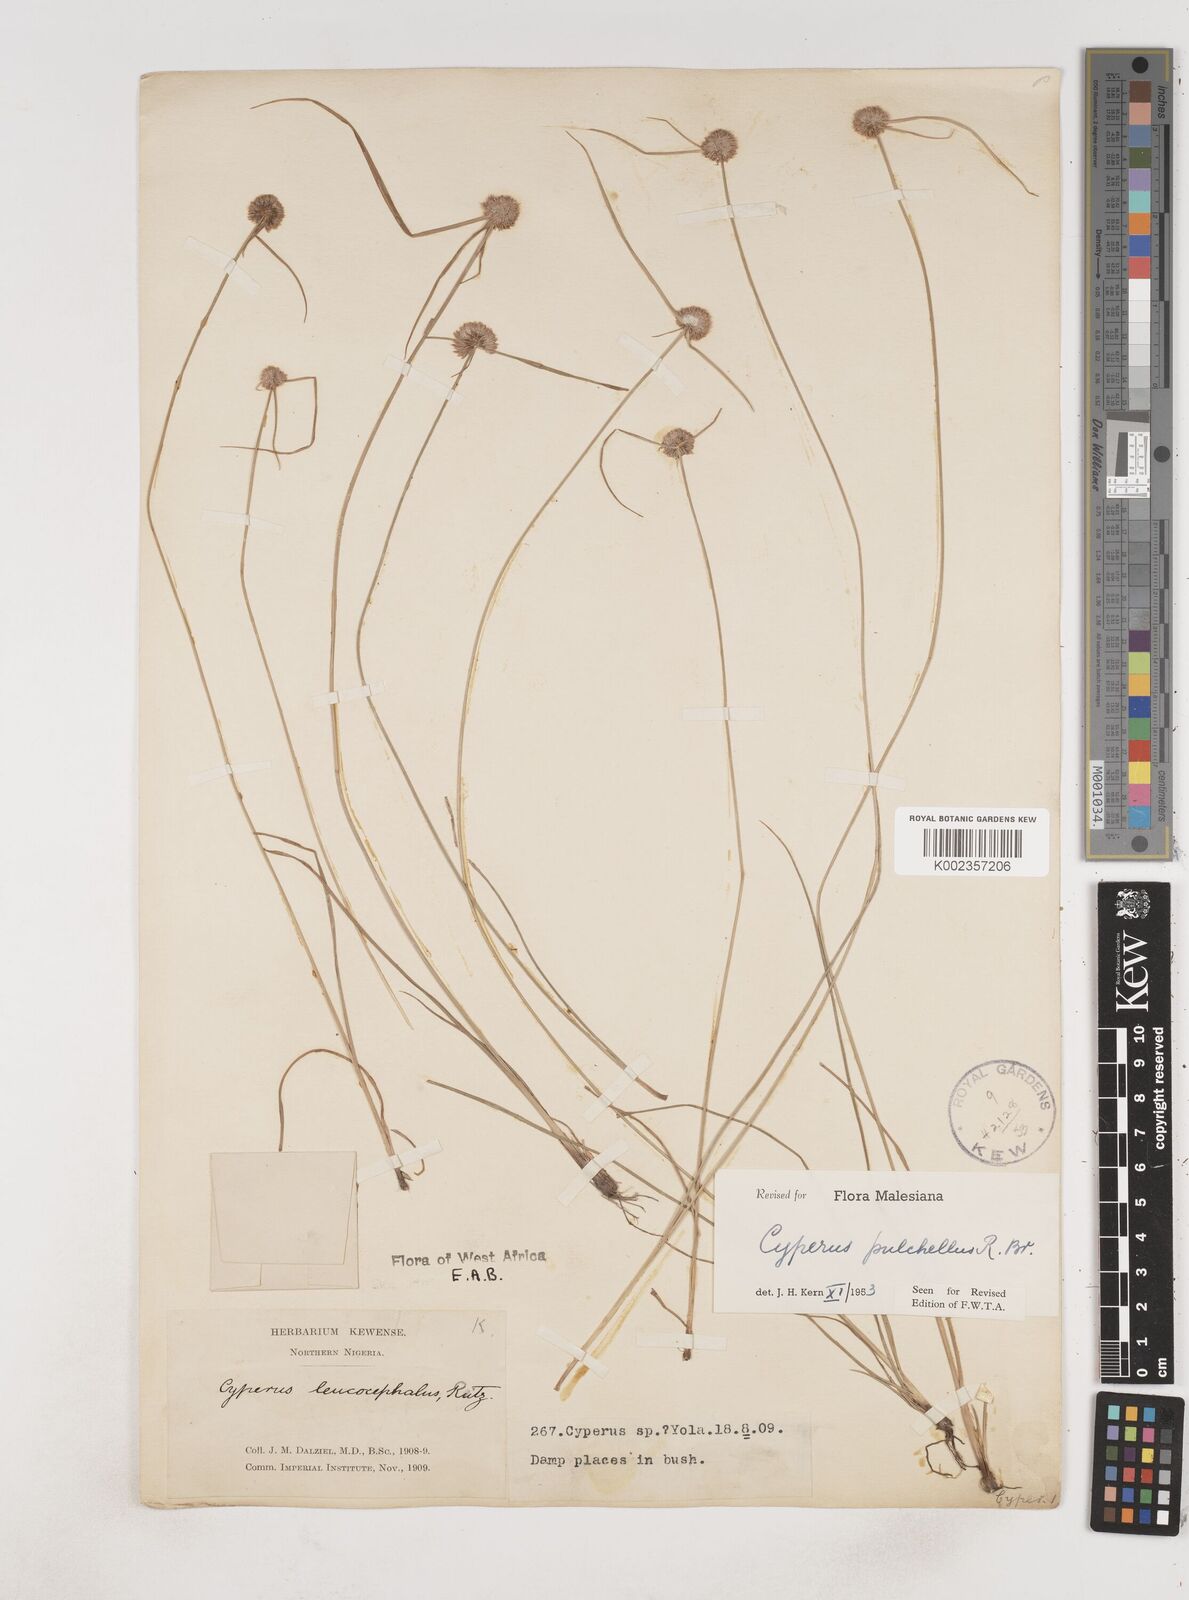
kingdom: Plantae
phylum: Tracheophyta
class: Liliopsida
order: Poales
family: Cyperaceae
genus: Cyperus
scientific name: Cyperus pulchellus
